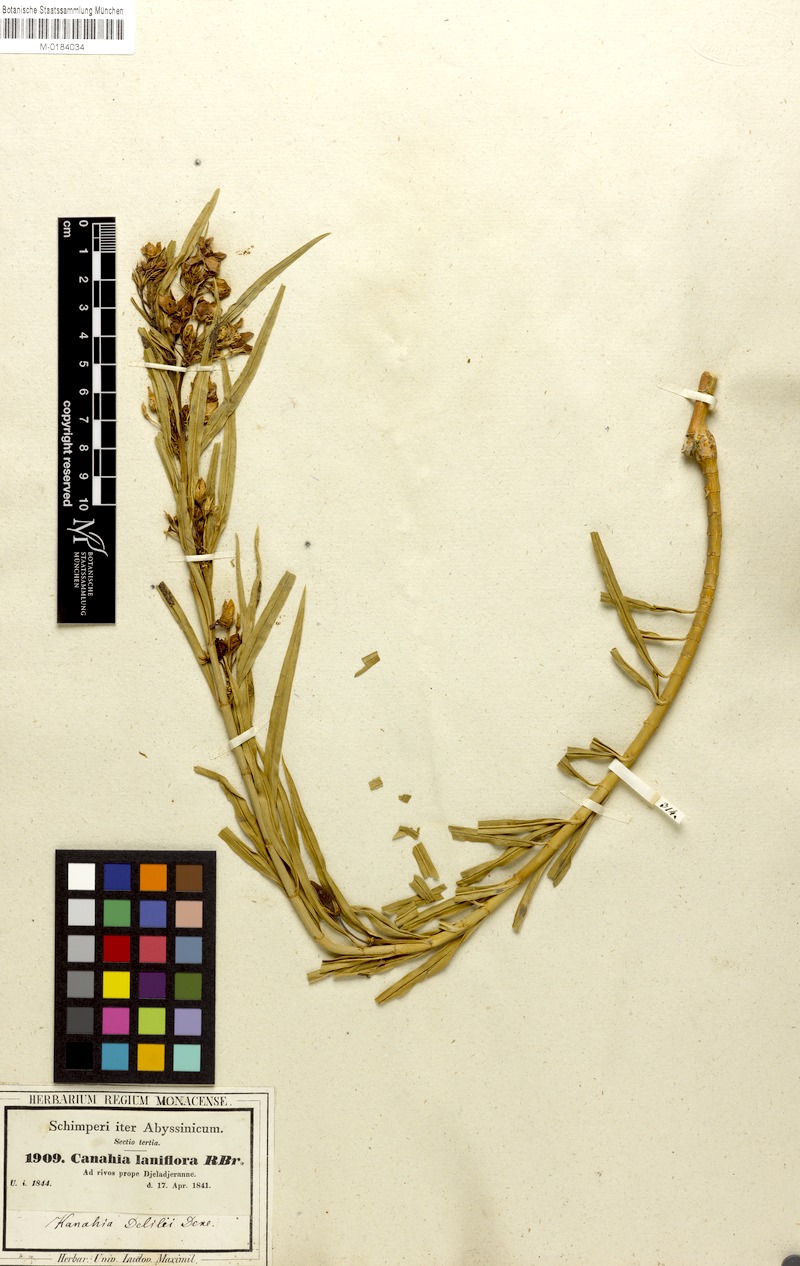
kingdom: Plantae
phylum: Tracheophyta
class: Magnoliopsida
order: Gentianales
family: Apocynaceae
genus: Kanahia
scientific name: Kanahia laniflora
